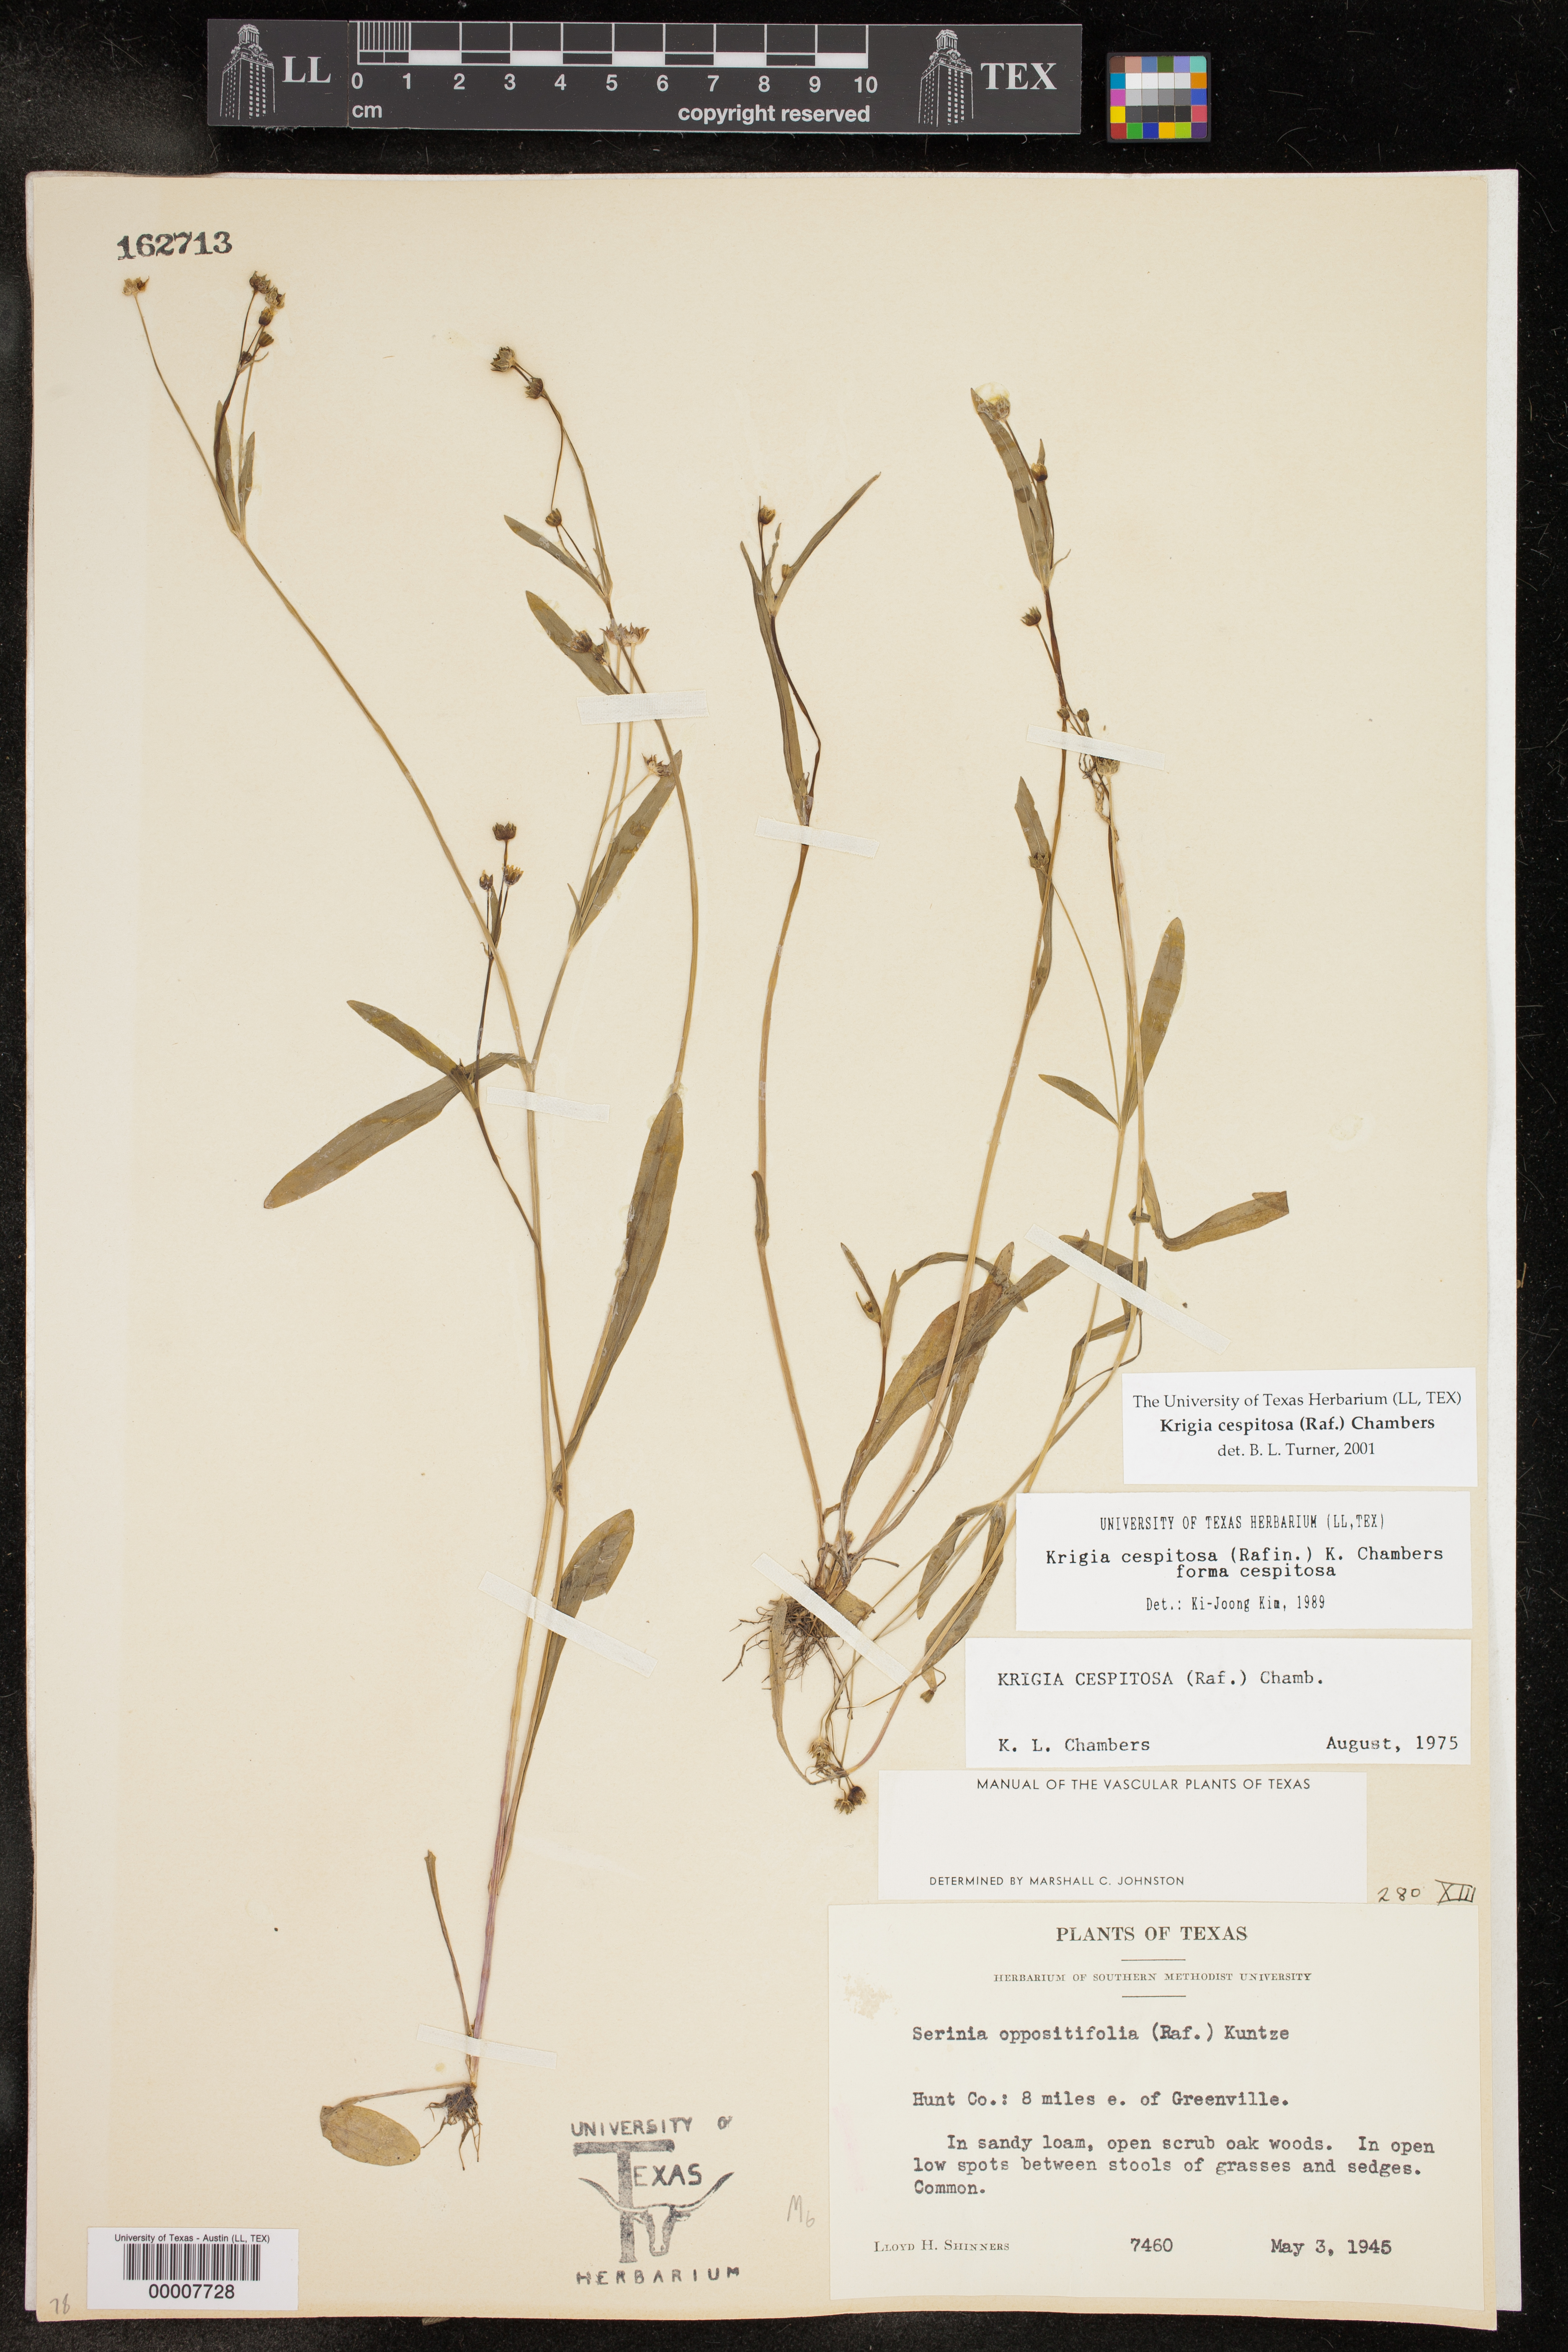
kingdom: Plantae
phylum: Tracheophyta
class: Magnoliopsida
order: Asterales
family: Asteraceae
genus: Krigia
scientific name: Krigia cespitosa
